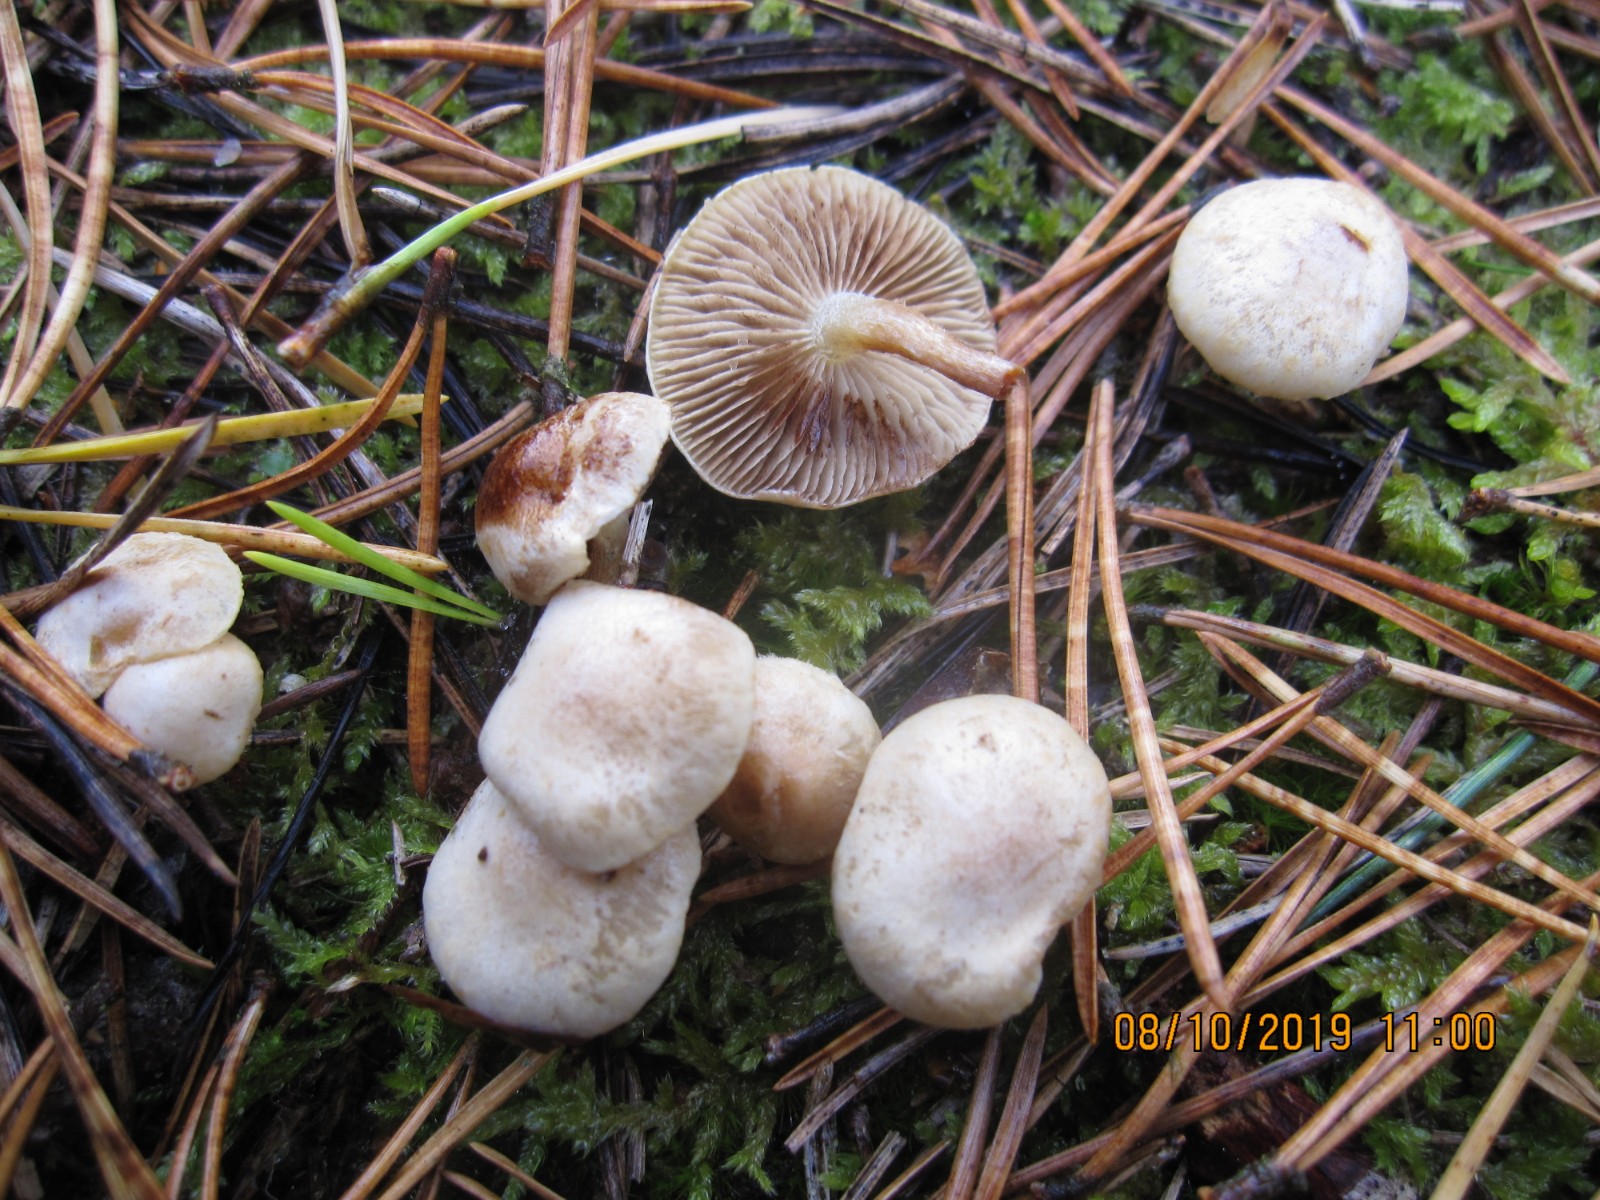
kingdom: Fungi
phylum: Basidiomycota
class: Agaricomycetes
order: Agaricales
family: Strophariaceae
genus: Pholiota
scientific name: Pholiota scamba
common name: dværg-skælhat
